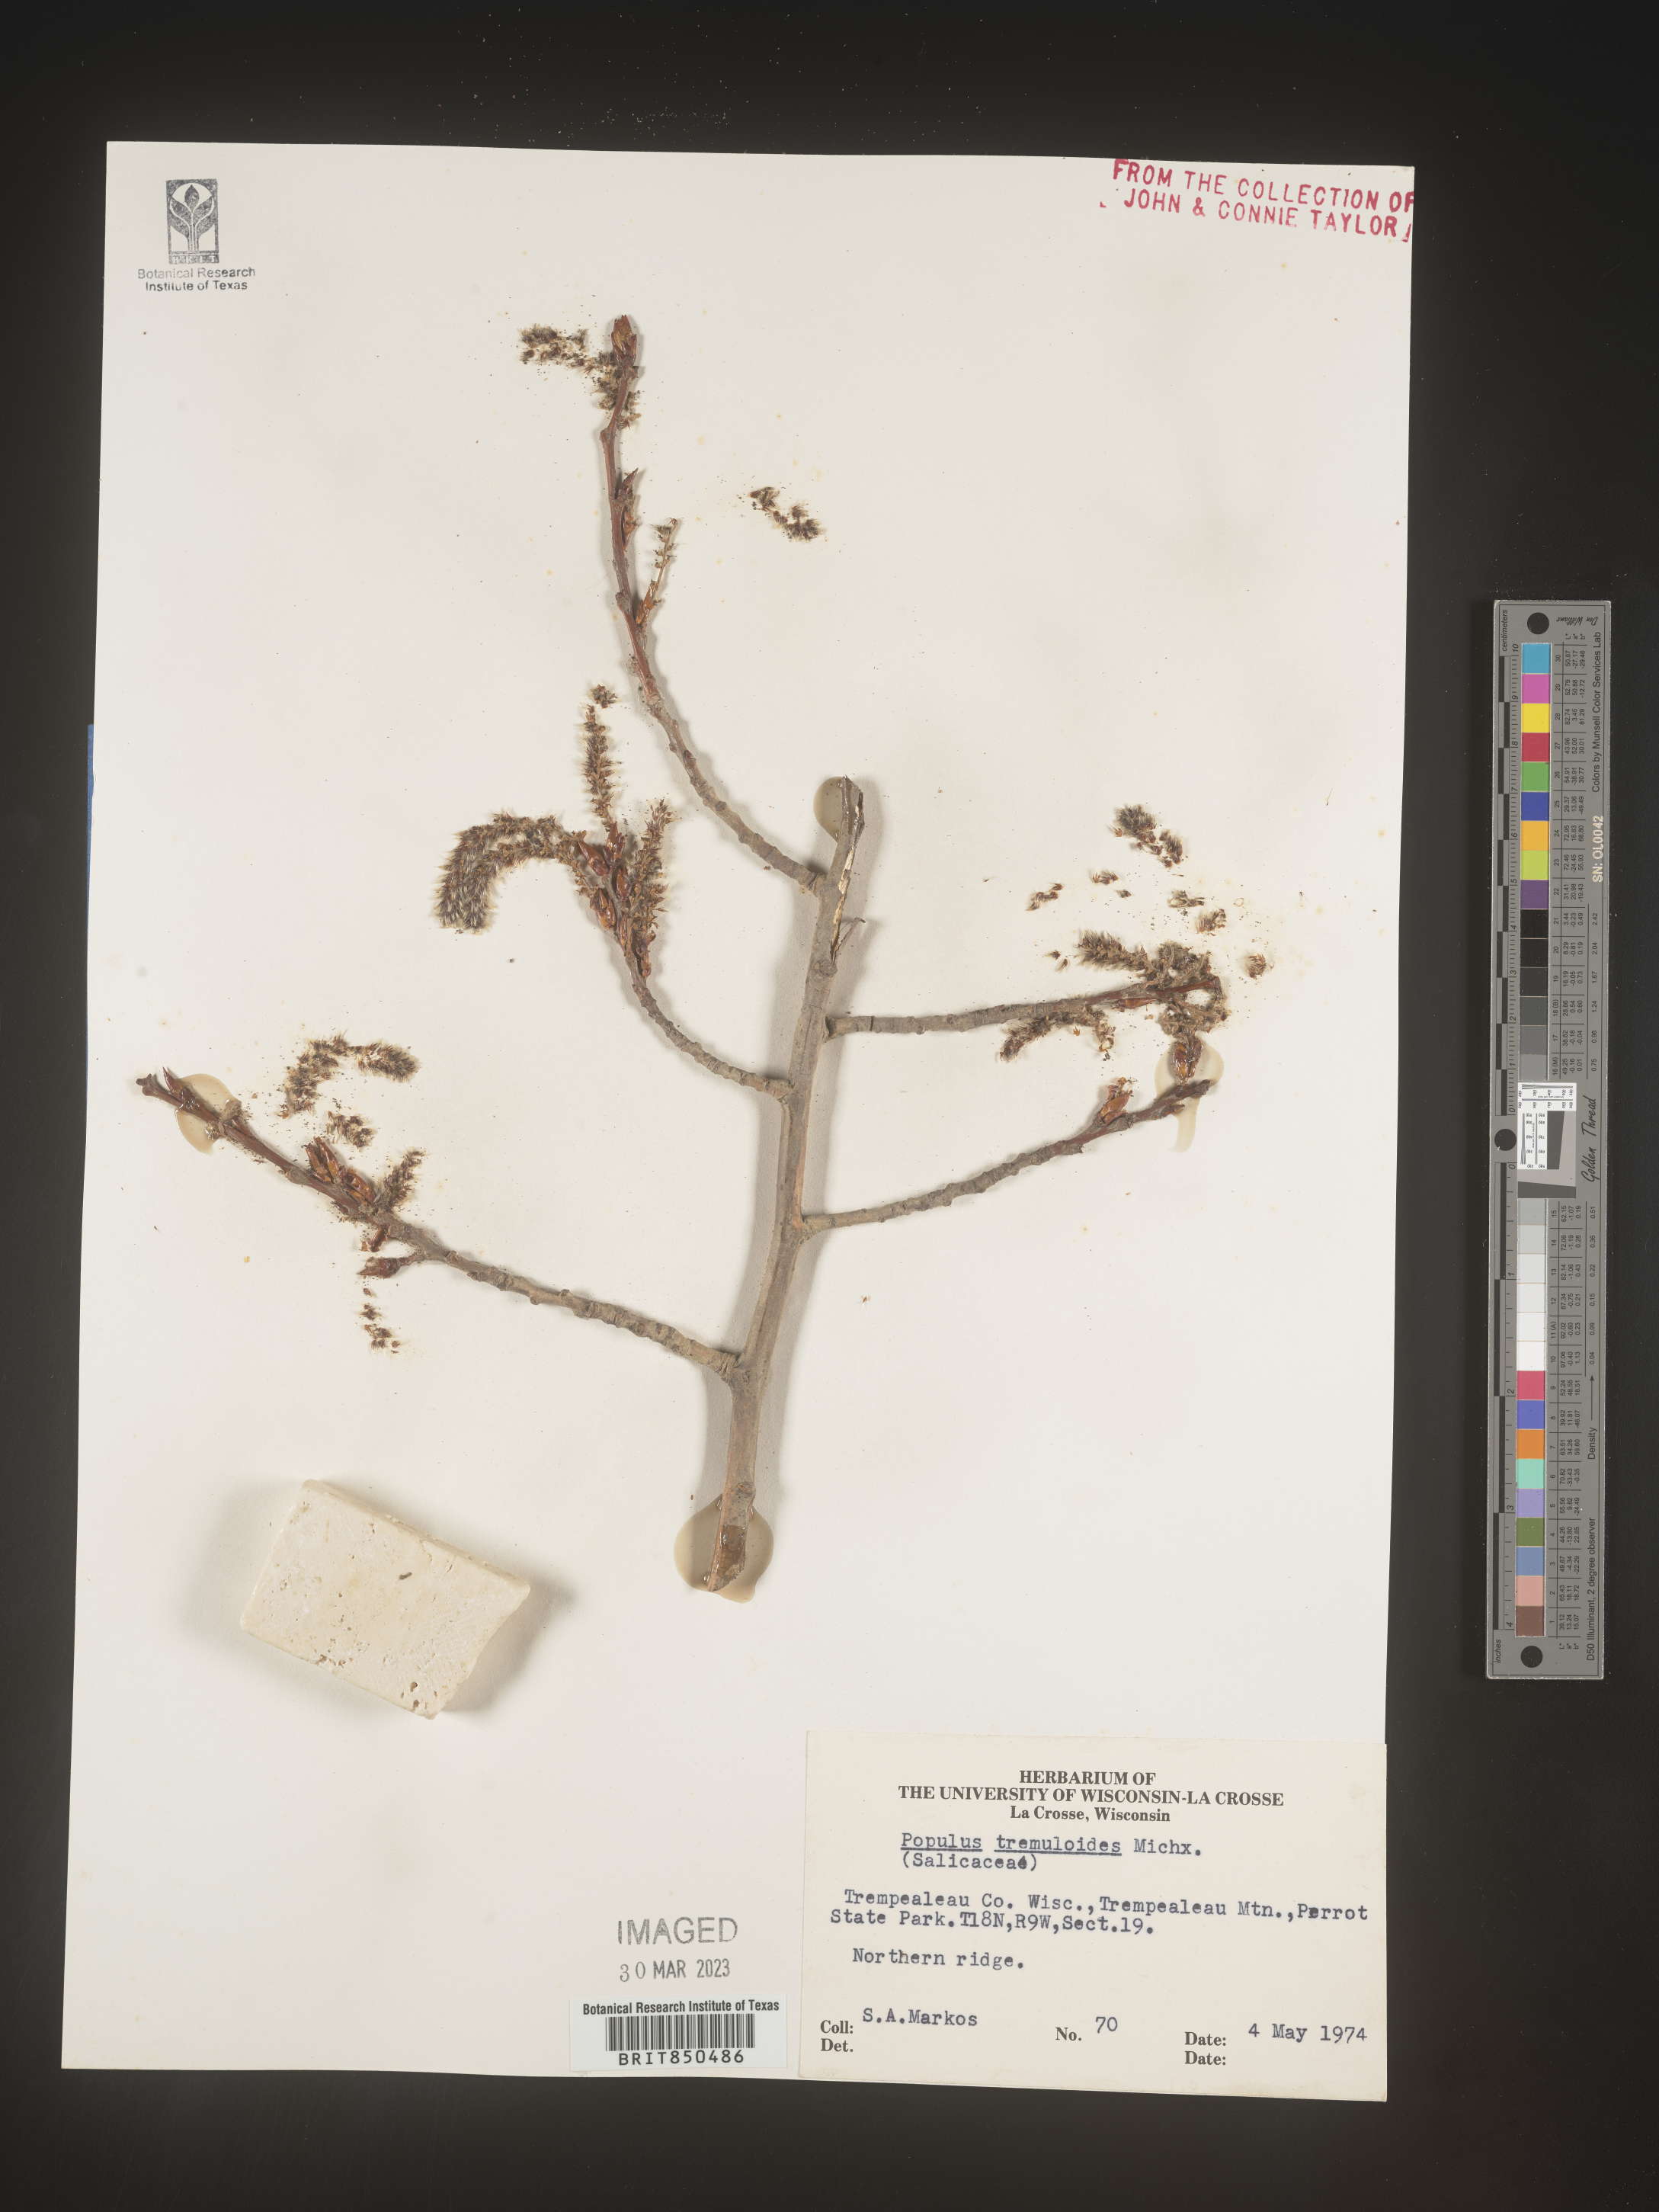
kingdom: Plantae
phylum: Tracheophyta
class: Magnoliopsida
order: Malpighiales
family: Salicaceae
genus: Populus
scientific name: Populus tremuloides
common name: Quaking aspen
